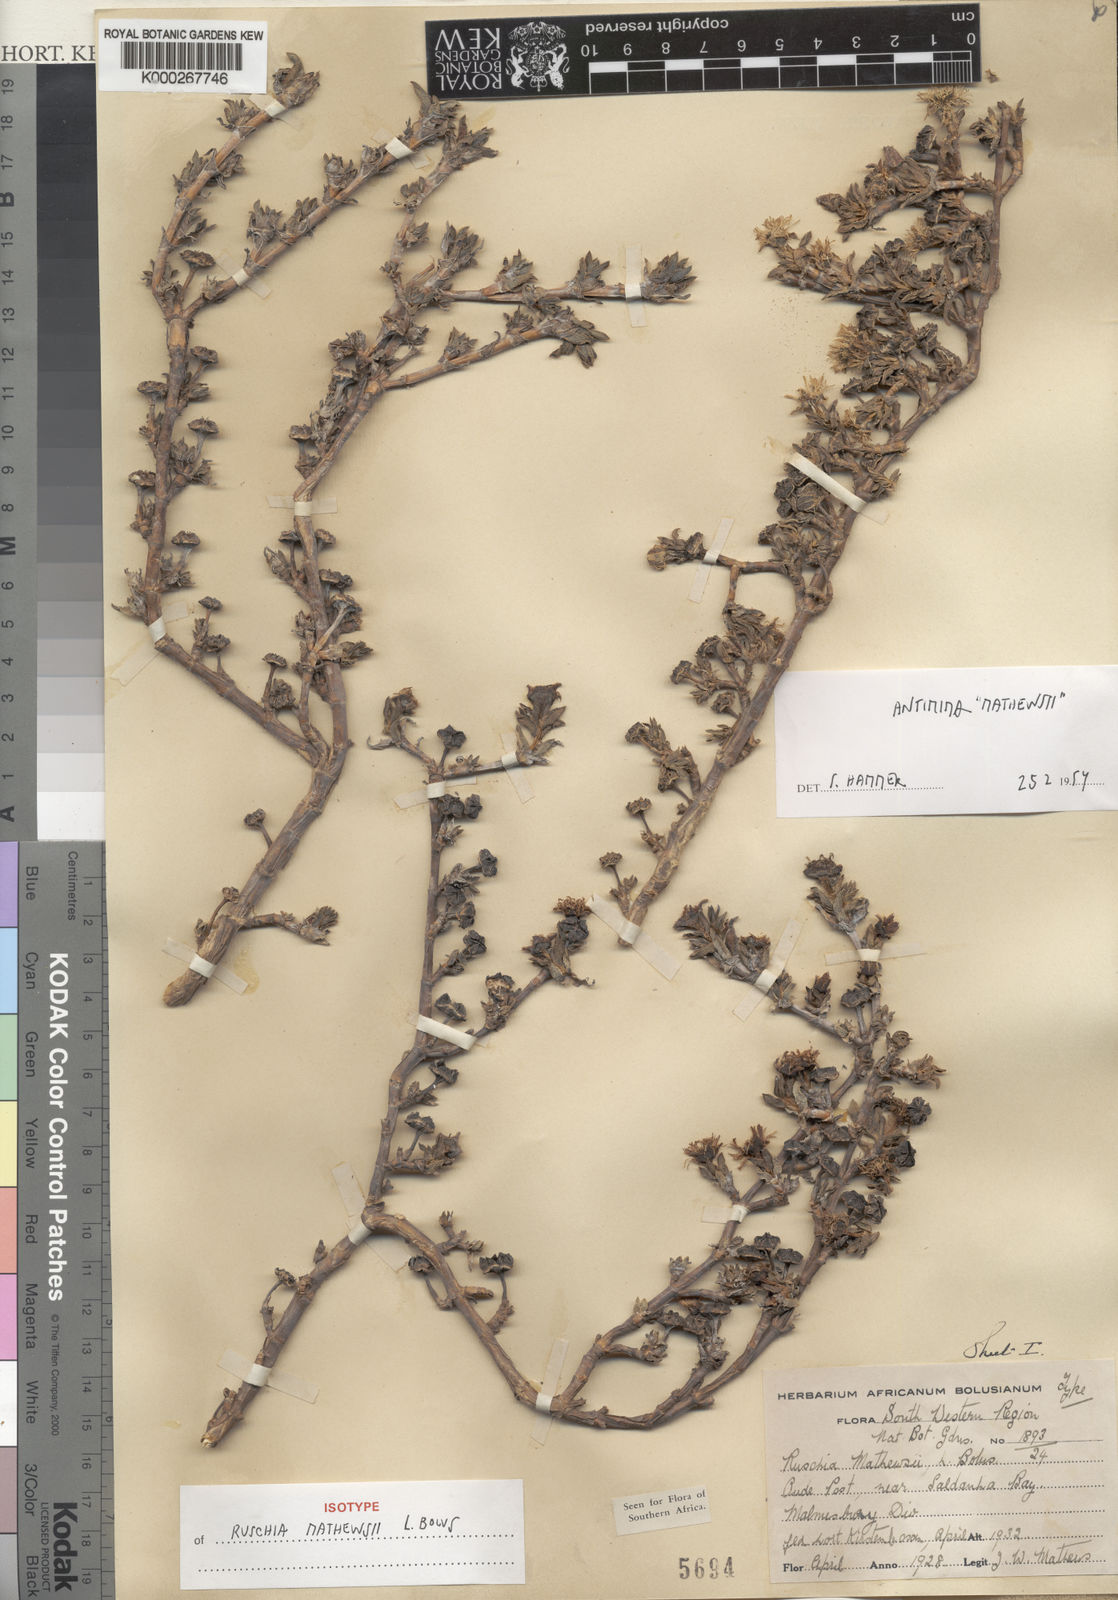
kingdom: Plantae
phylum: Tracheophyta
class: Magnoliopsida
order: Caryophyllales
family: Aizoaceae
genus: Antimima
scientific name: Antimima mucronata
